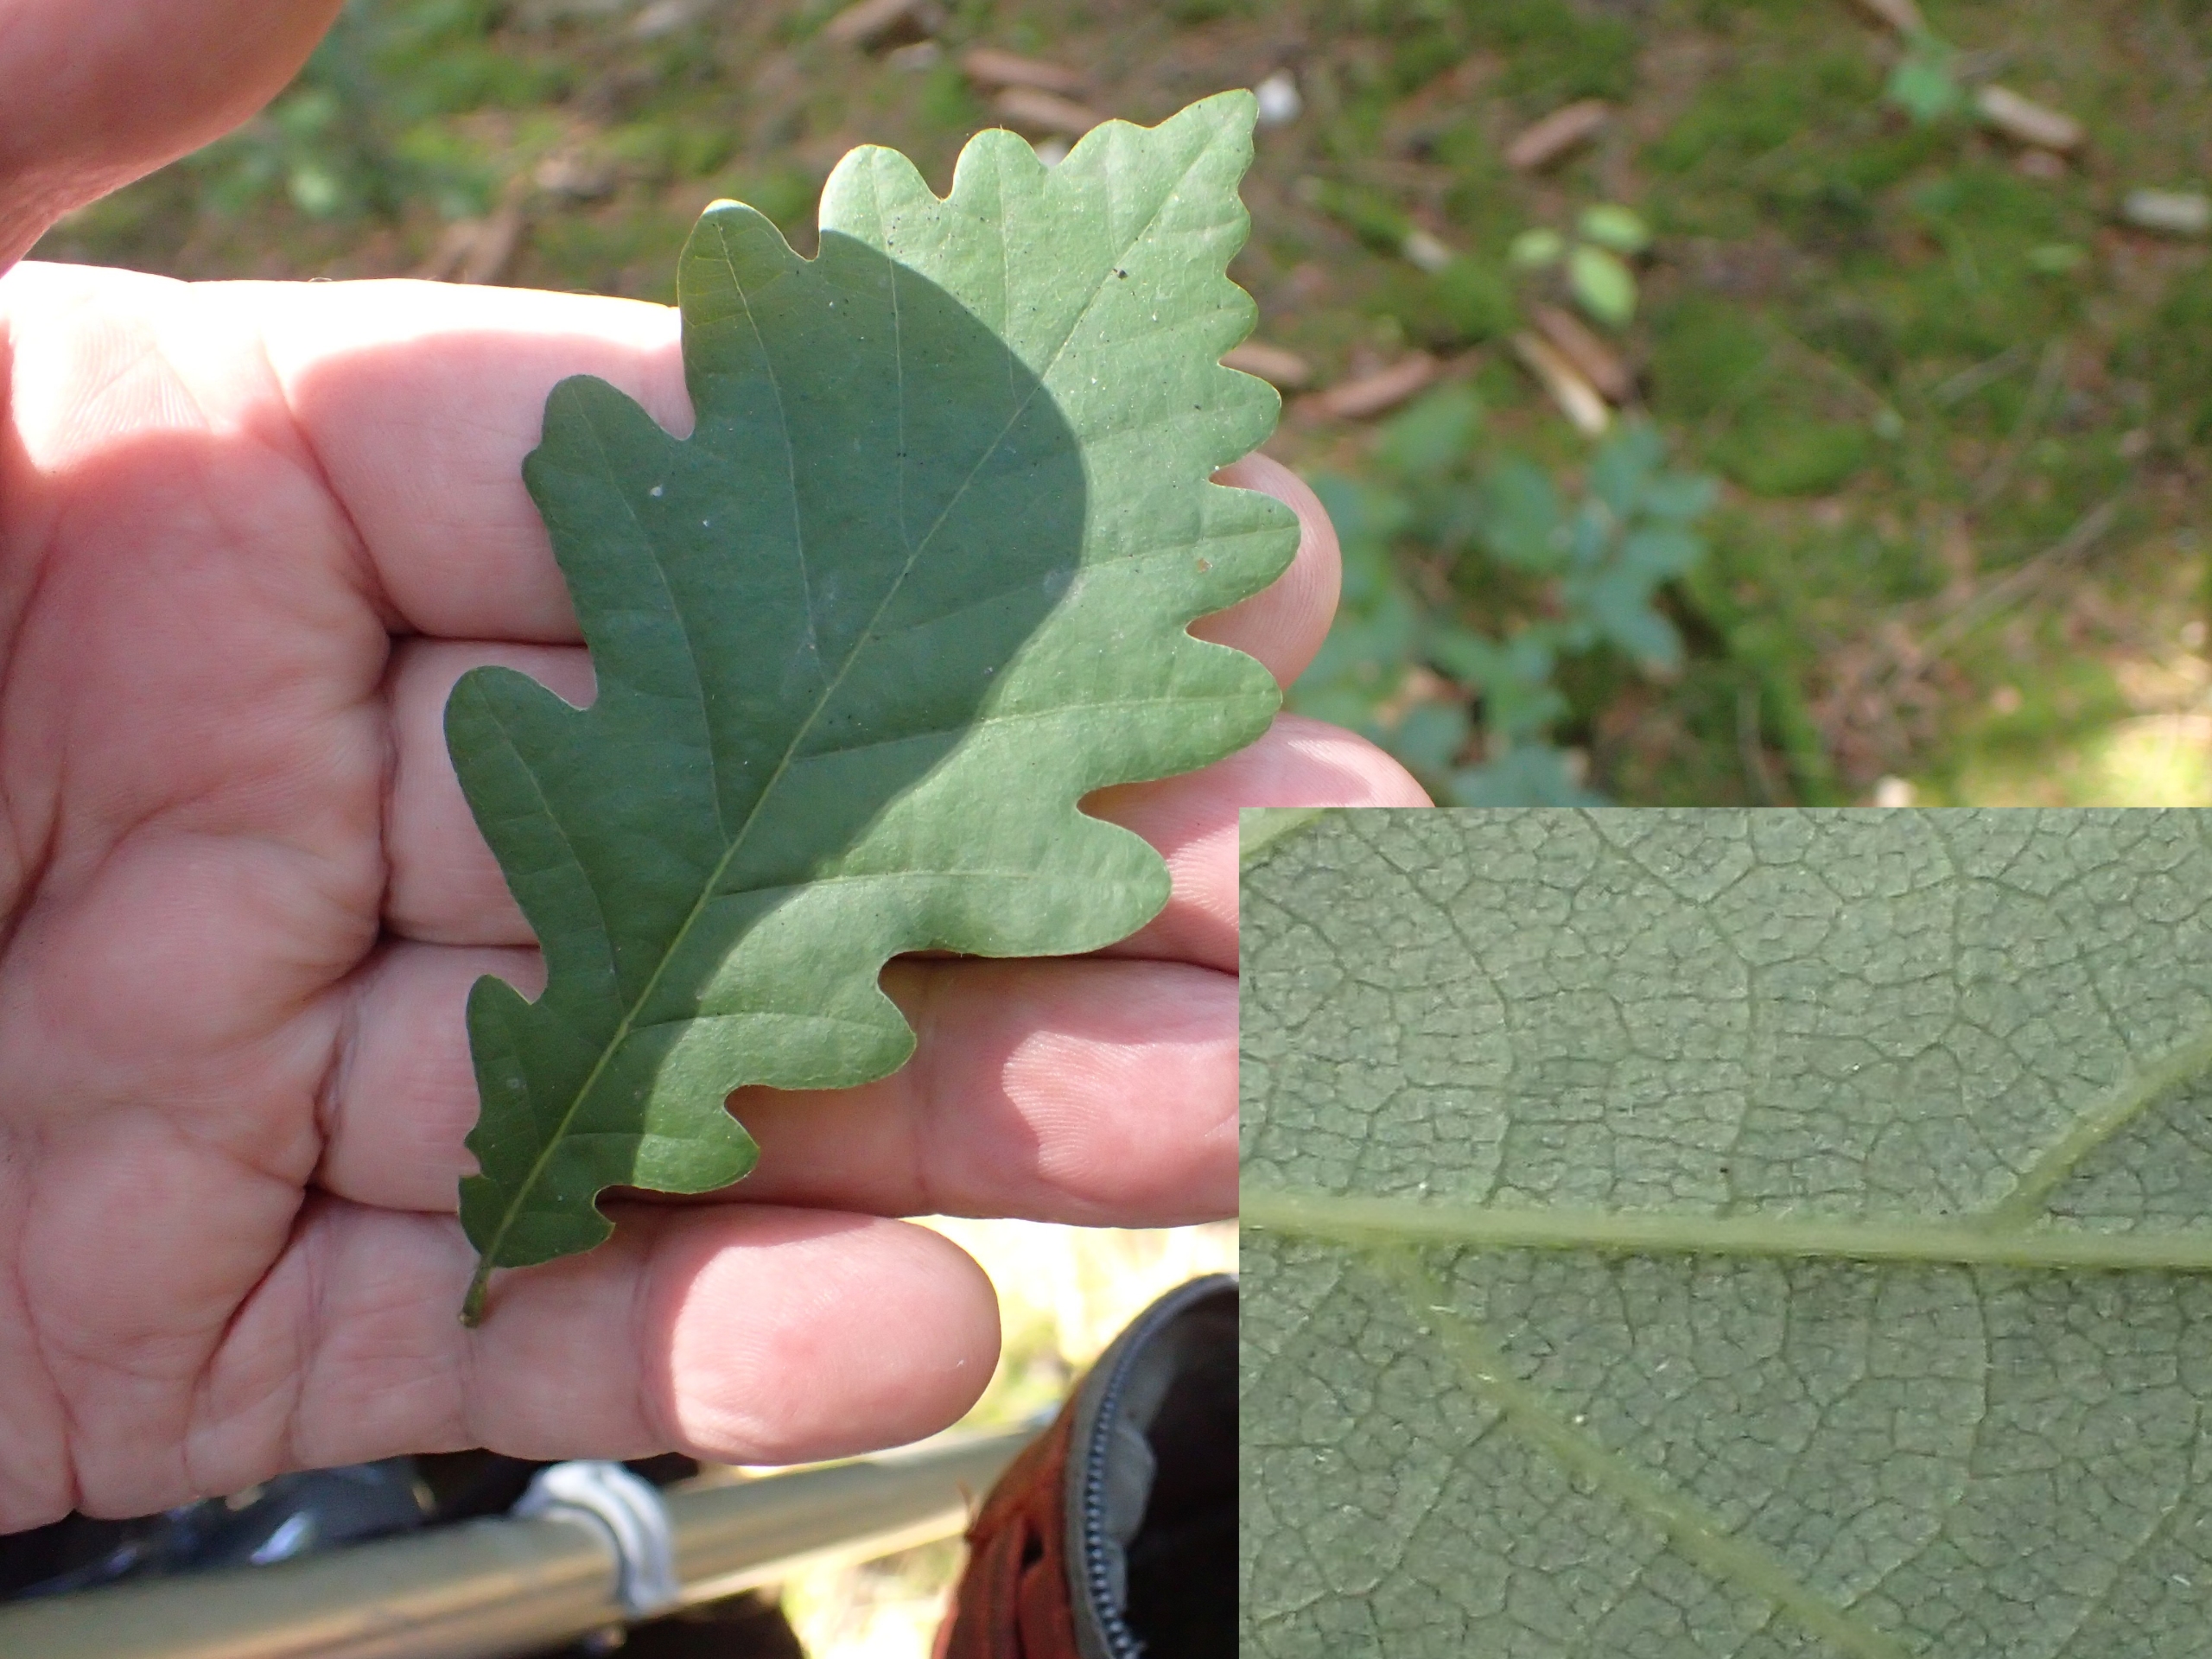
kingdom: Plantae
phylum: Tracheophyta
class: Magnoliopsida
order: Fagales
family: Fagaceae
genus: Quercus
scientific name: Quercus robur
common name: Stilk-eg/almindelig eg
